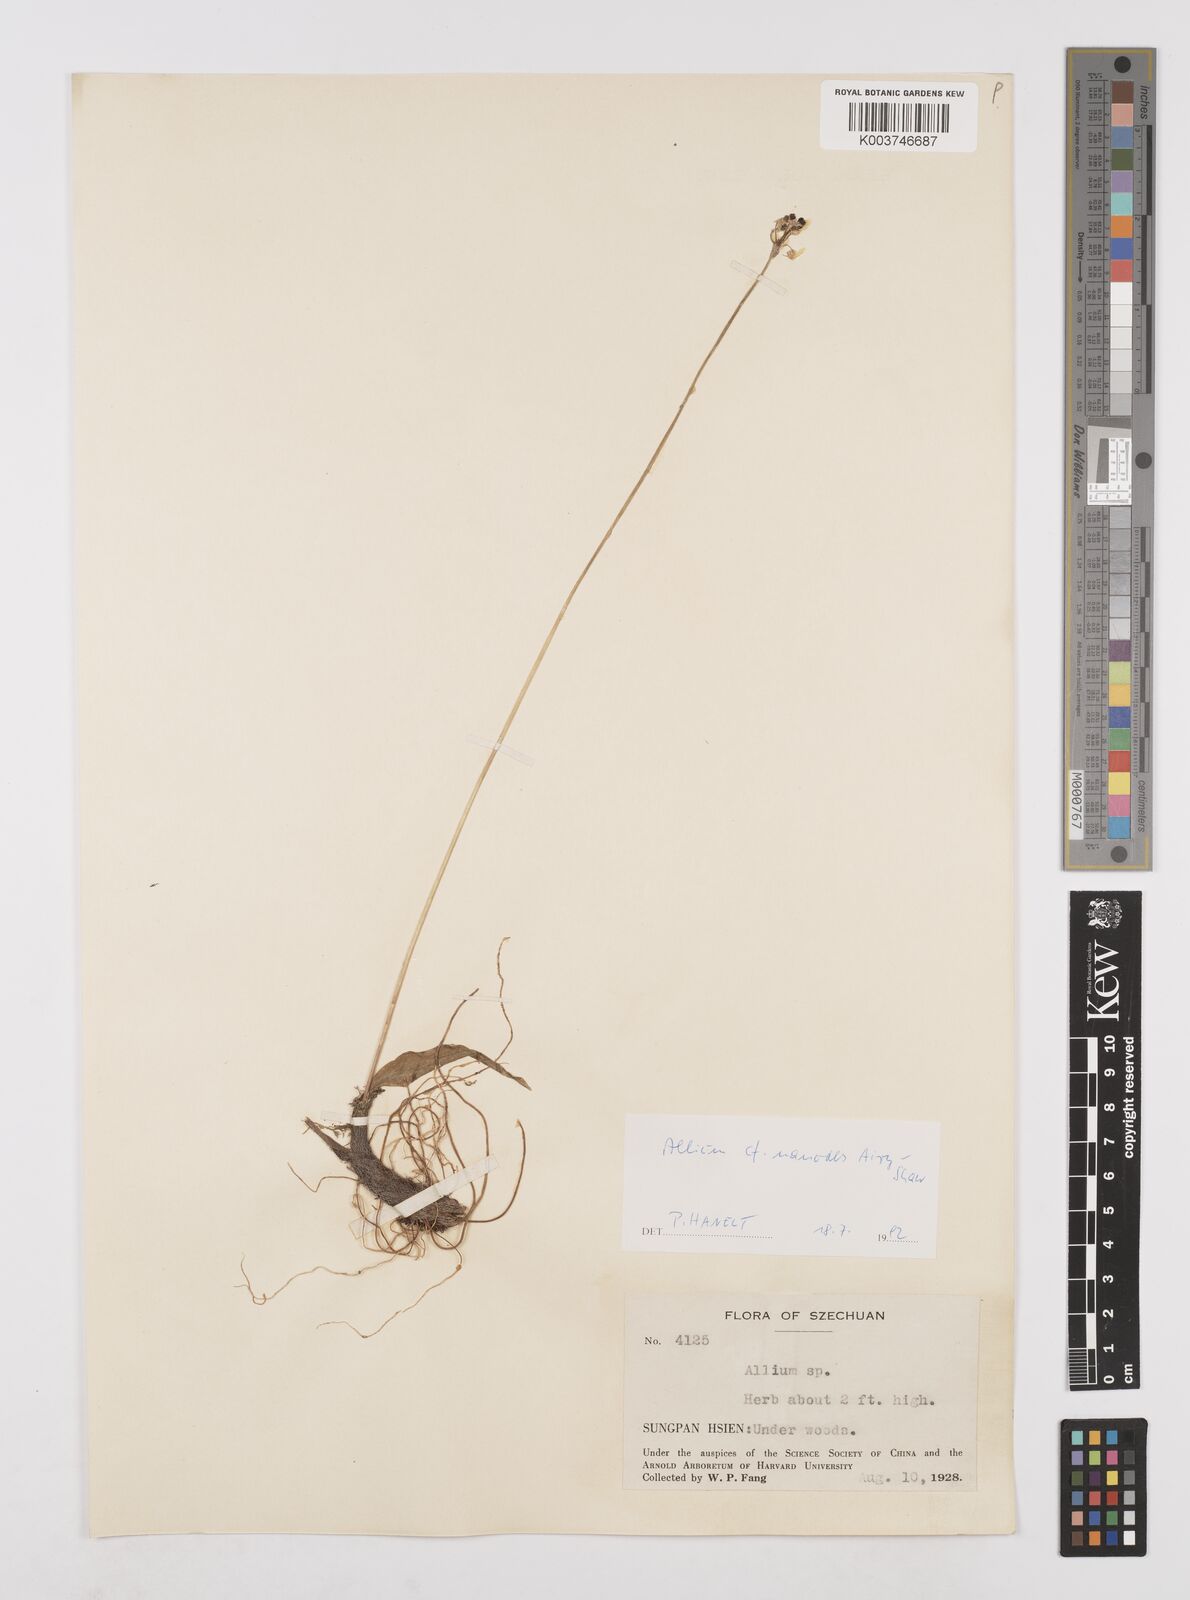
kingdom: Plantae
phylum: Tracheophyta
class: Liliopsida
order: Asparagales
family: Amaryllidaceae
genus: Allium
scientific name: Allium nanodes
